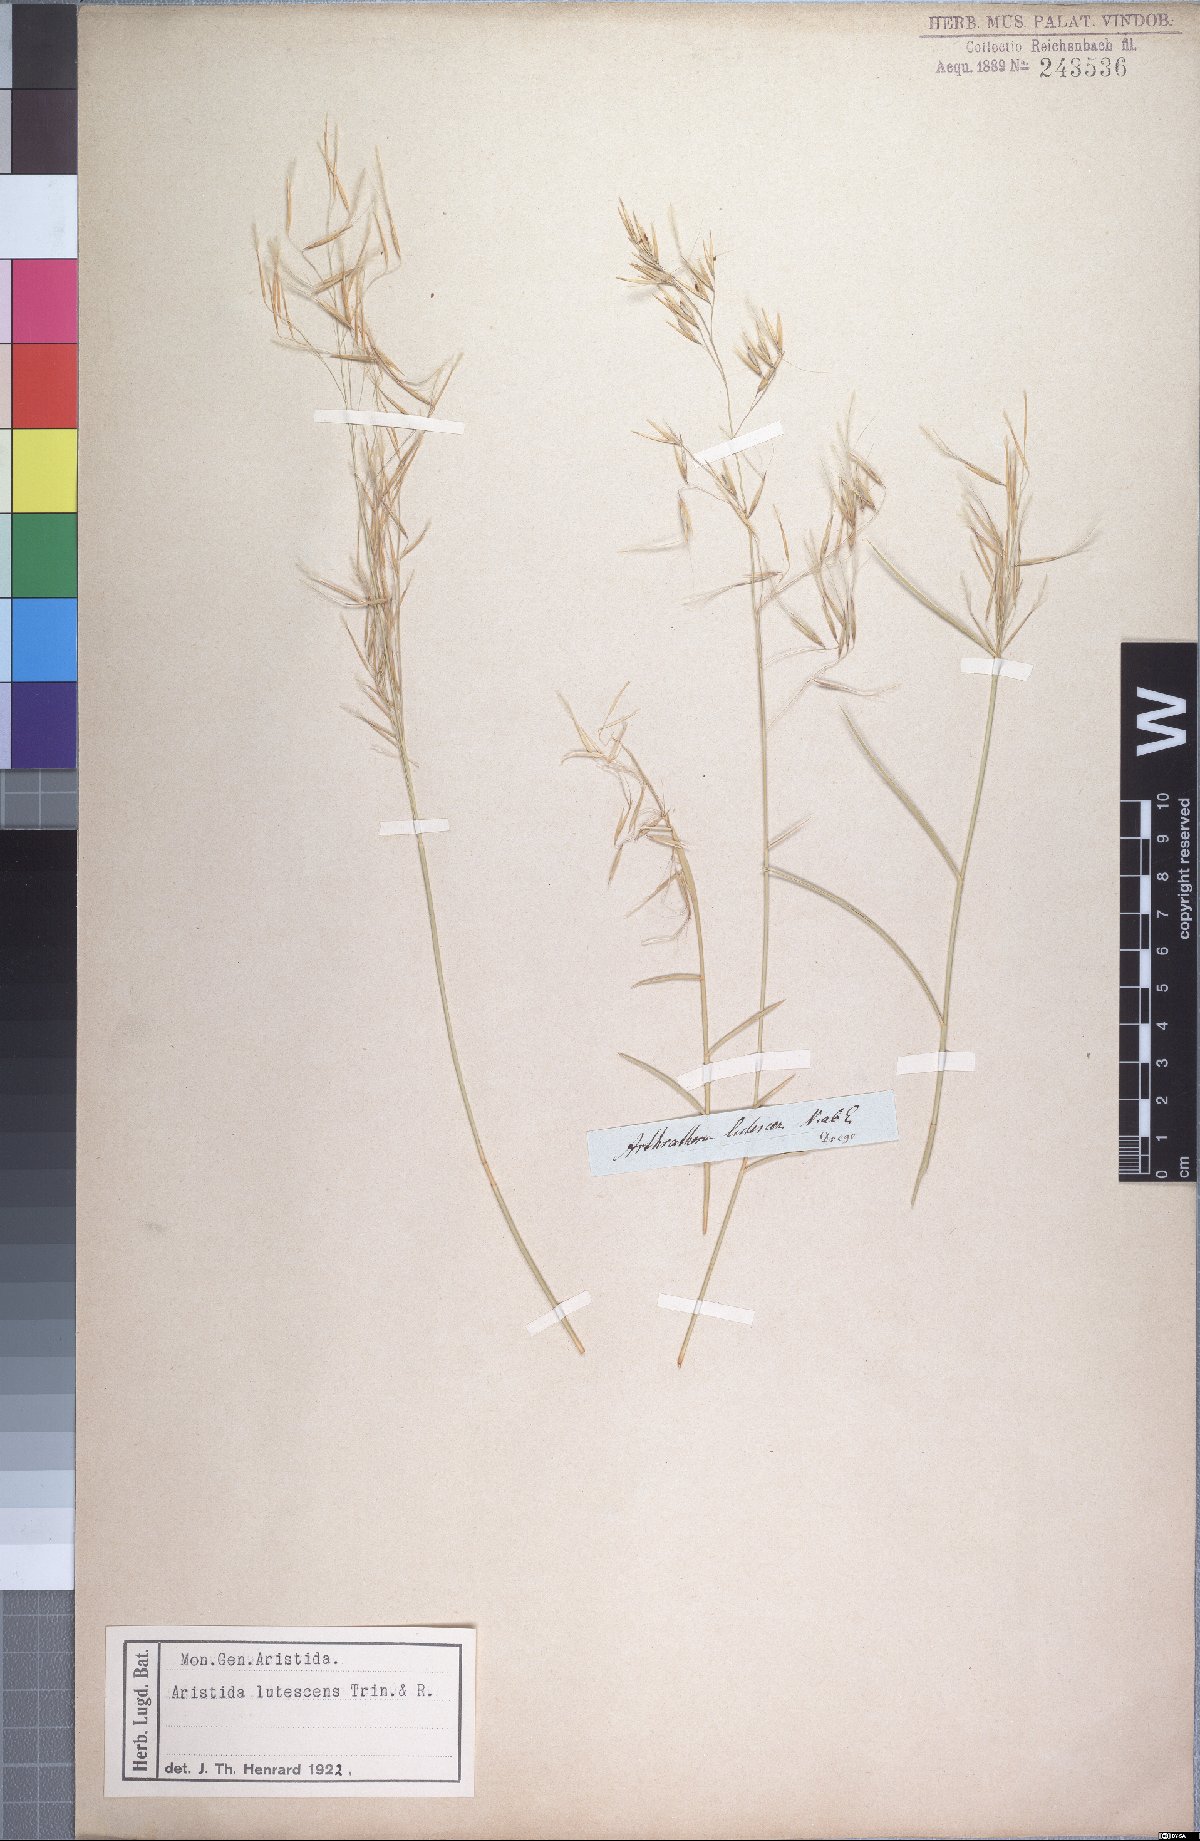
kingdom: Plantae
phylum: Tracheophyta
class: Liliopsida
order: Poales
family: Poaceae
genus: Stipagrostis
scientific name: Stipagrostis lutescens
